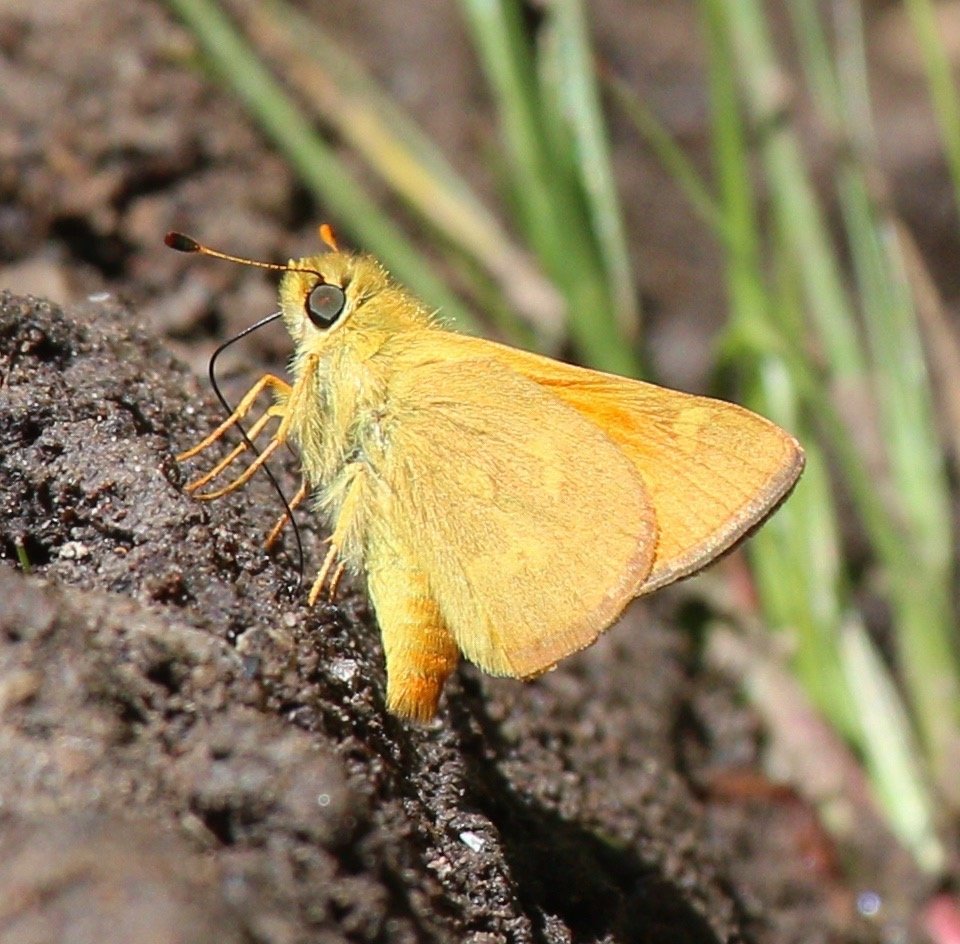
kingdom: Animalia
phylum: Arthropoda
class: Insecta
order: Lepidoptera
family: Hesperiidae
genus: Ochlodes
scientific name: Ochlodes sylvanoides
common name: Woodland Skipper
